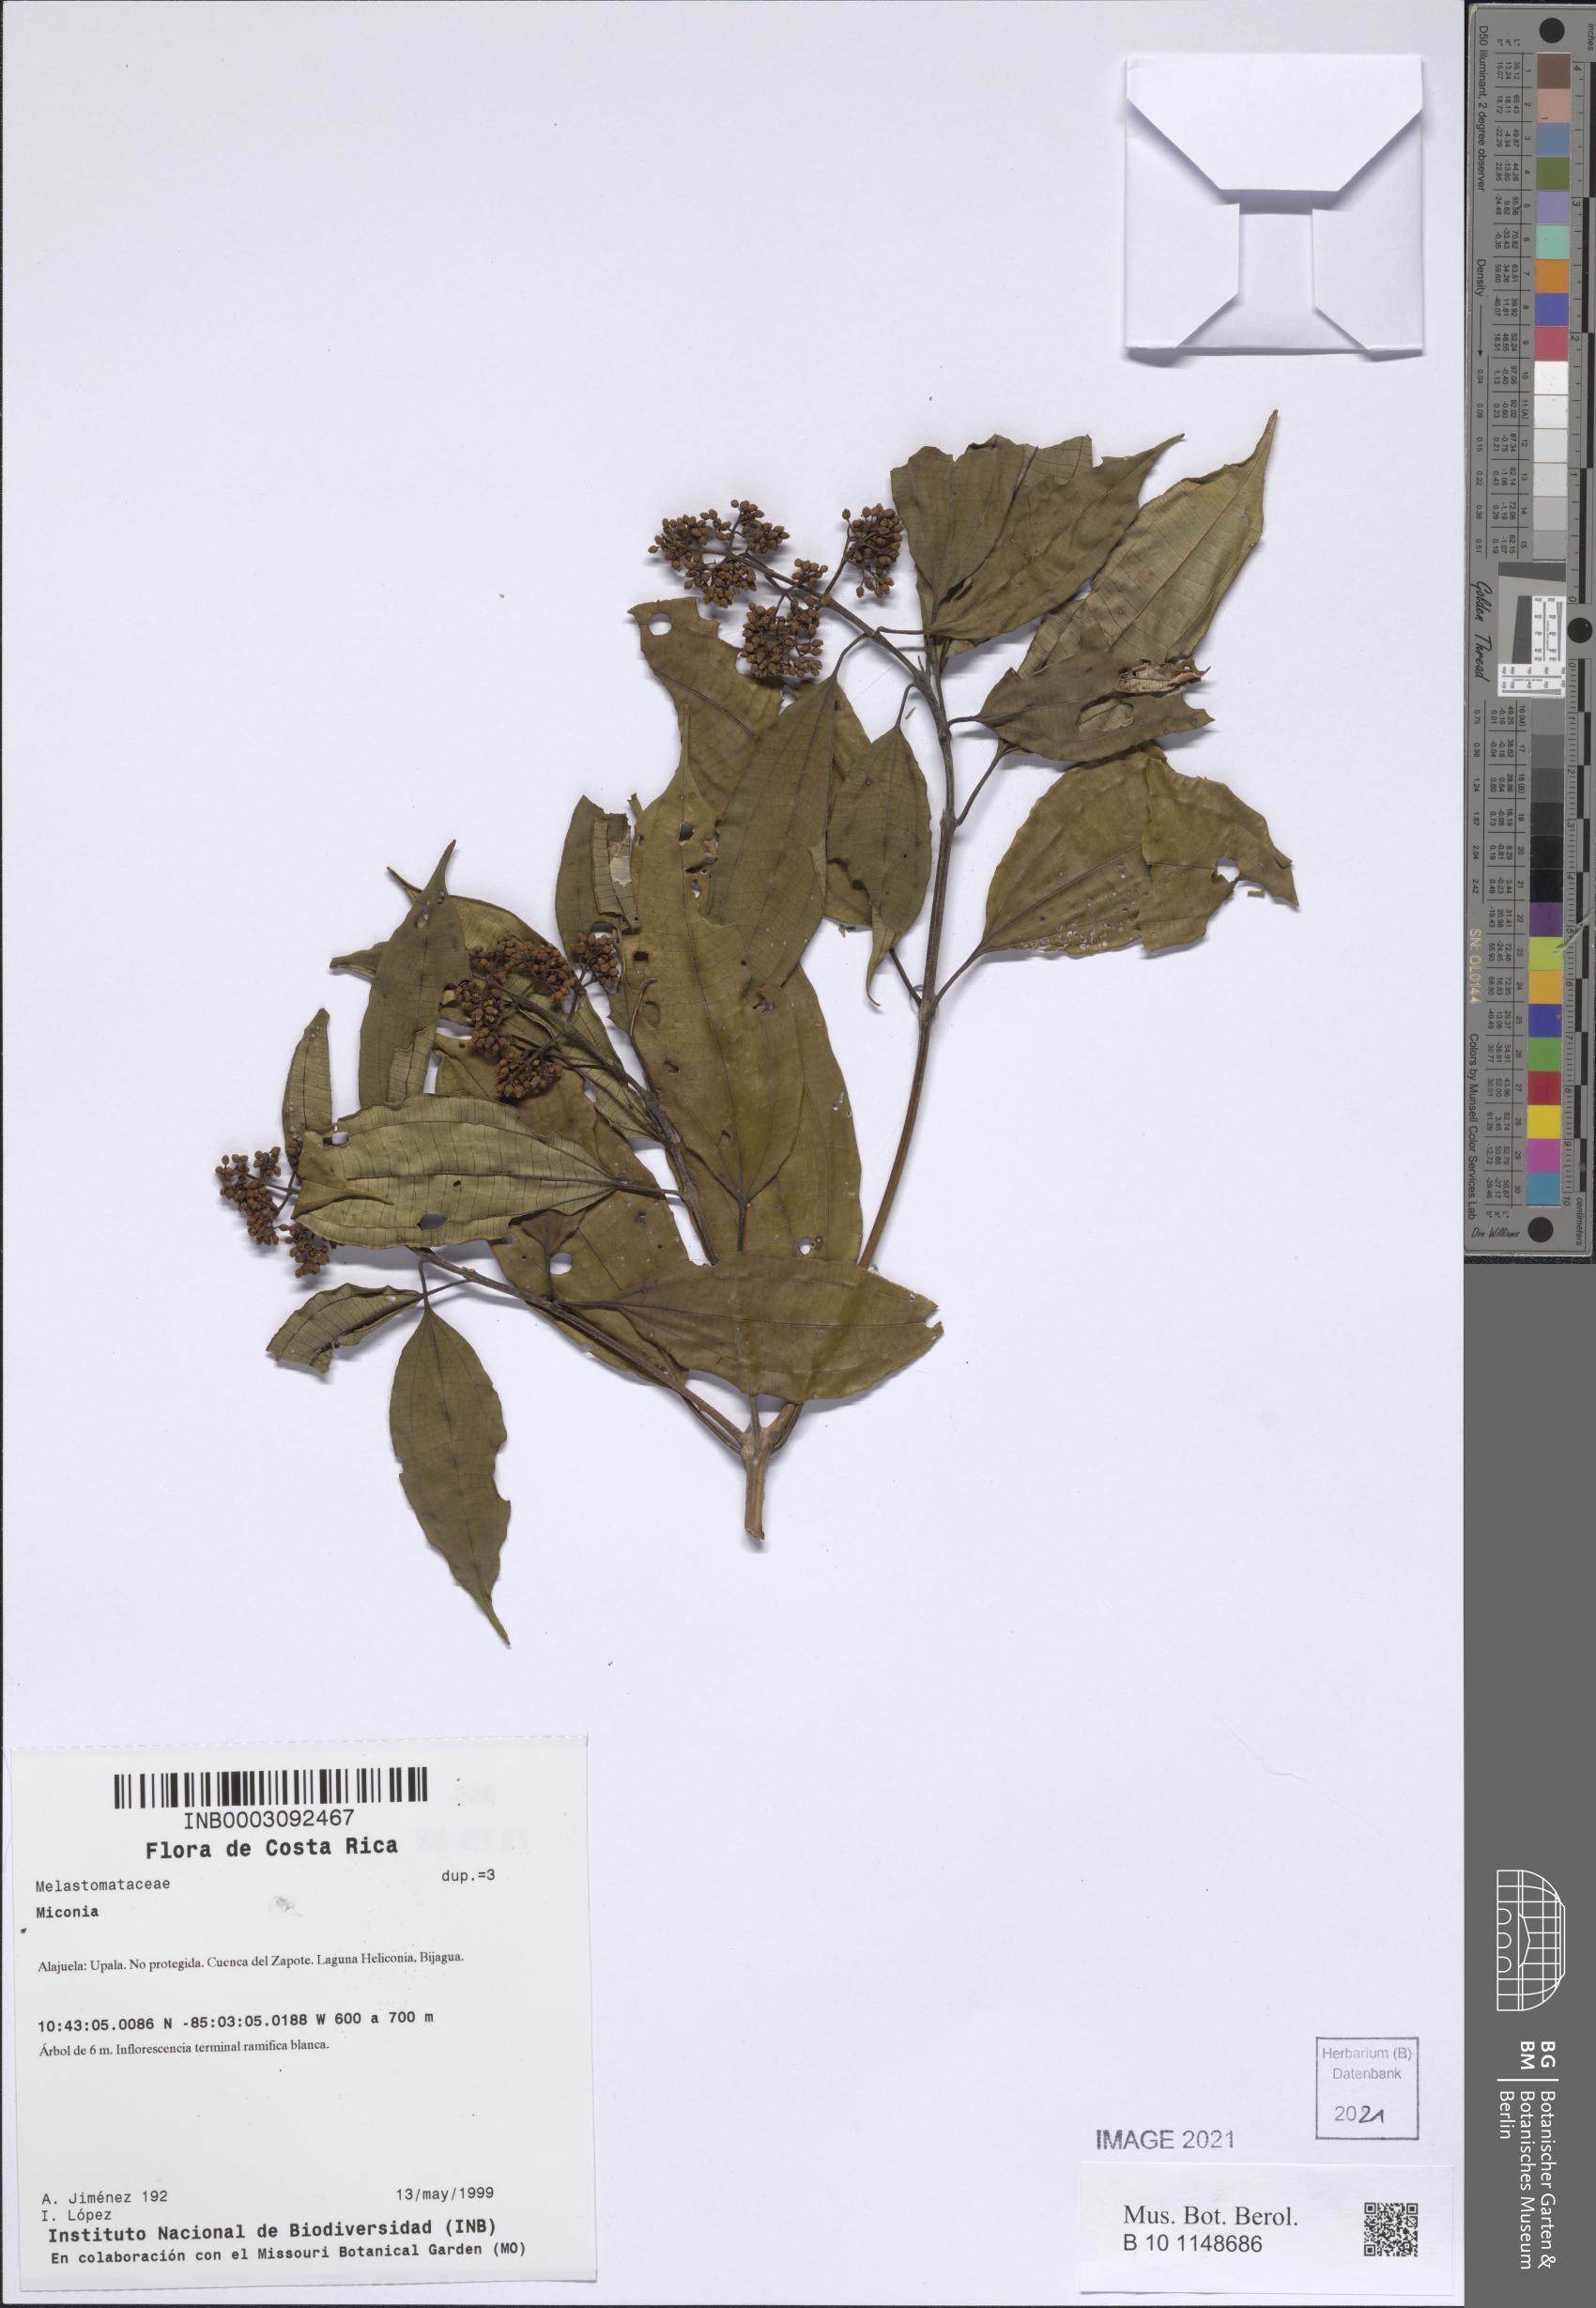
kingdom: Plantae
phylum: Tracheophyta
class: Magnoliopsida
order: Myrtales
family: Melastomataceae
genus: Miconia
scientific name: Miconia
